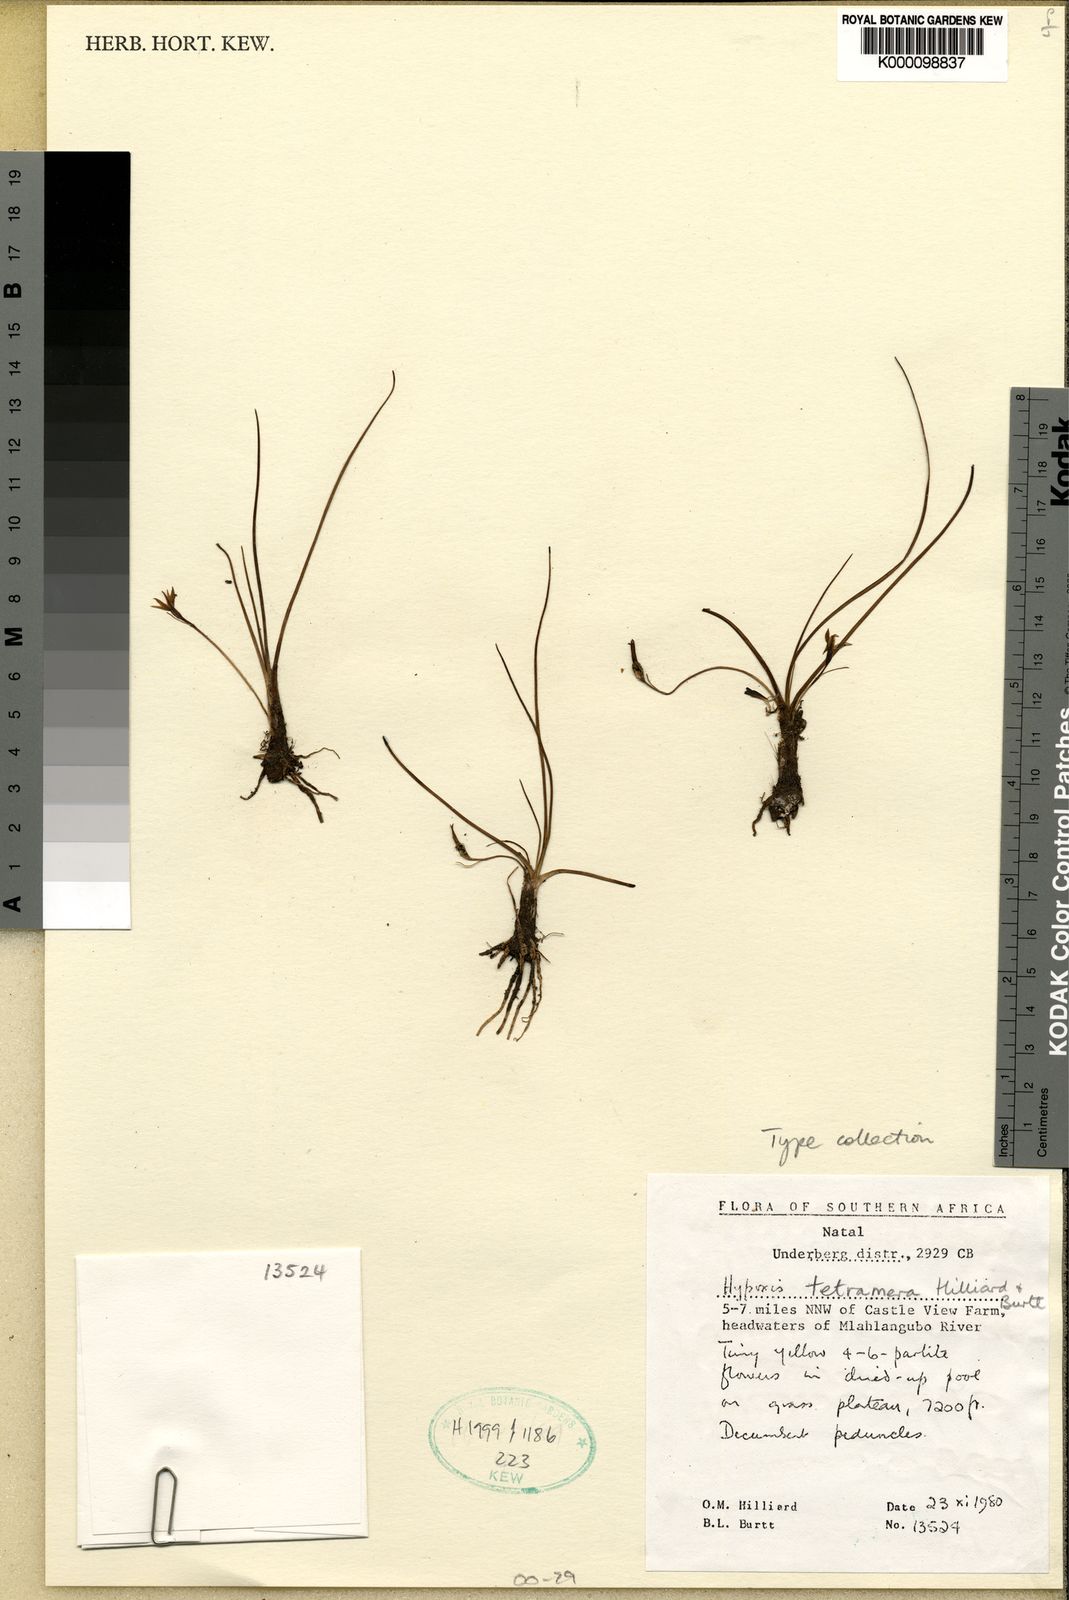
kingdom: Plantae
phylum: Tracheophyta
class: Liliopsida
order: Asparagales
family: Hypoxidaceae
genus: Hypoxis
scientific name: Hypoxis tetramera
